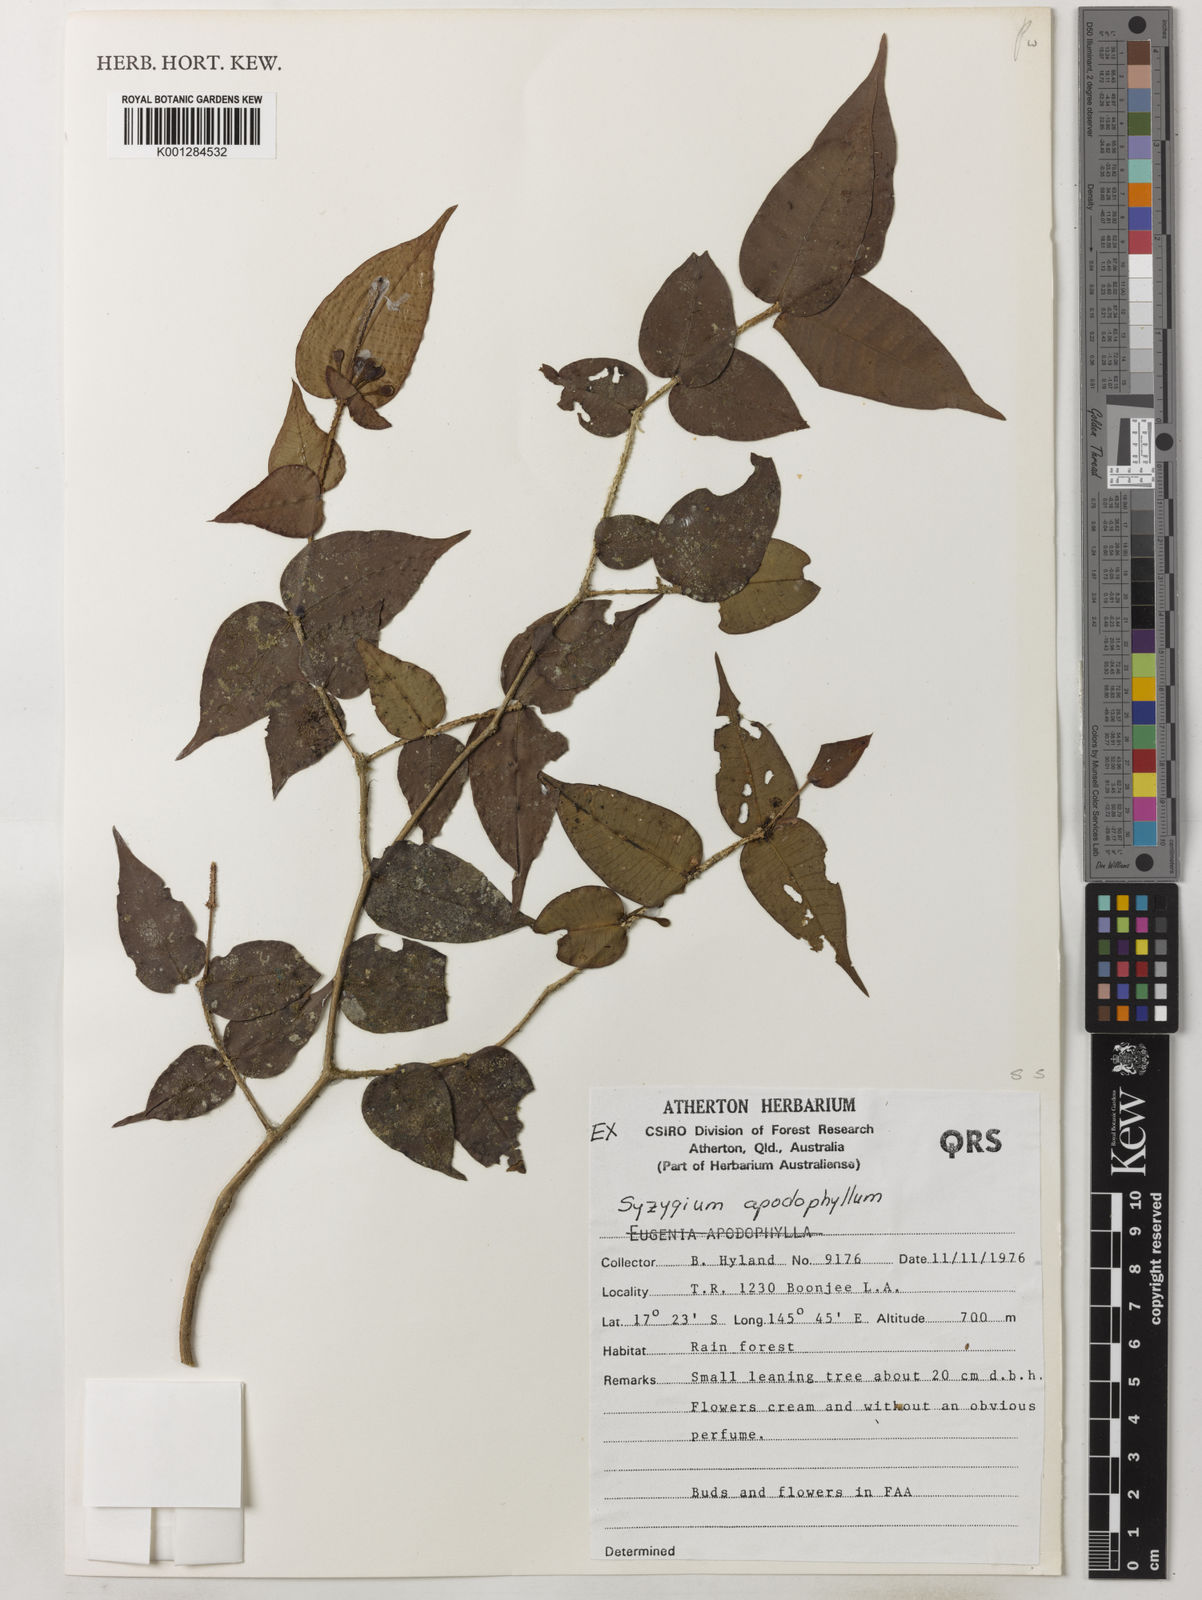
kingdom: Plantae
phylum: Tracheophyta
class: Magnoliopsida
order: Myrtales
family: Myrtaceae
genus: Syzygium
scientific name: Syzygium apodophyllum
